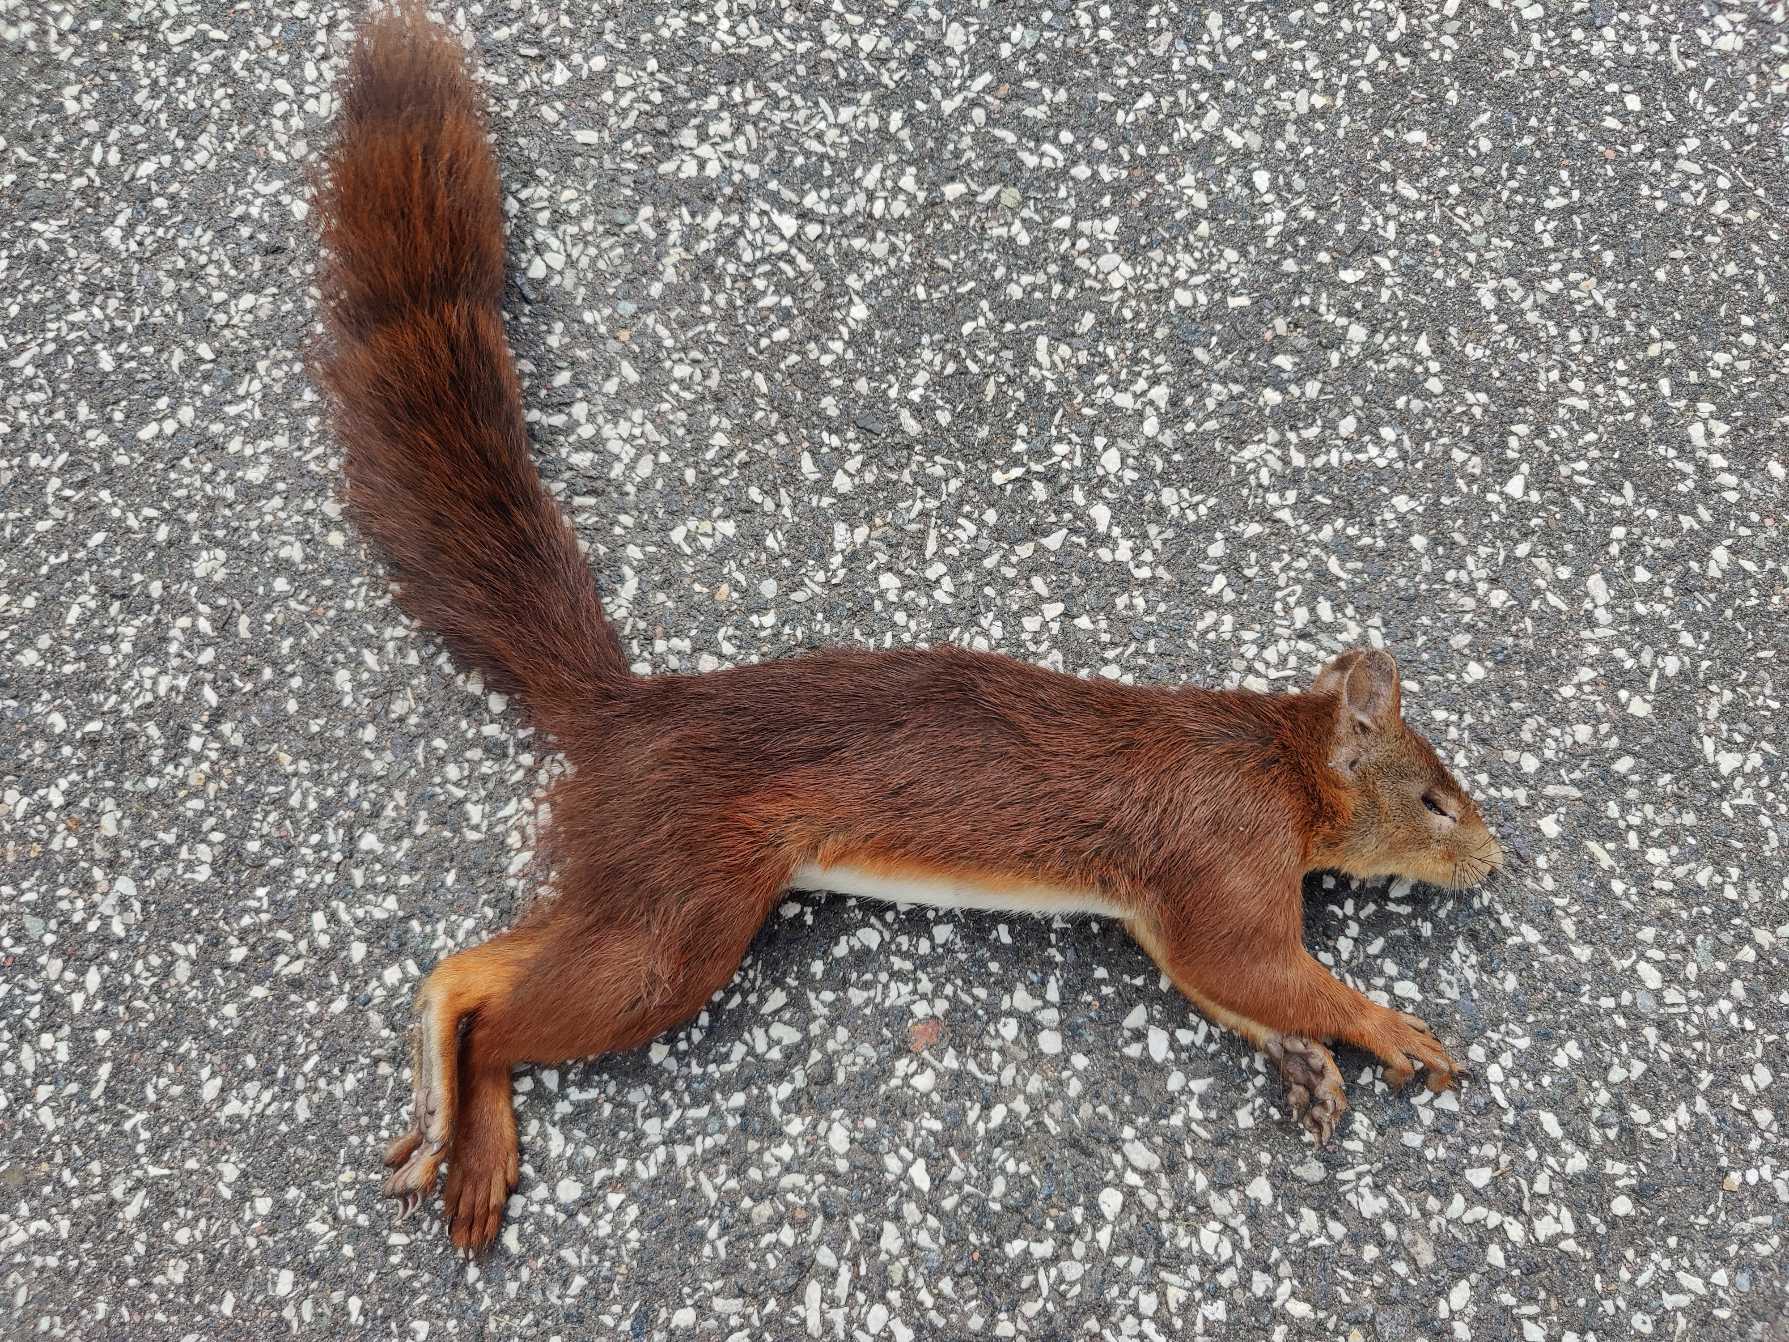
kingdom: Animalia
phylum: Chordata
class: Mammalia
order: Rodentia
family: Sciuridae
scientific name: Sciuridae
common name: Egern
